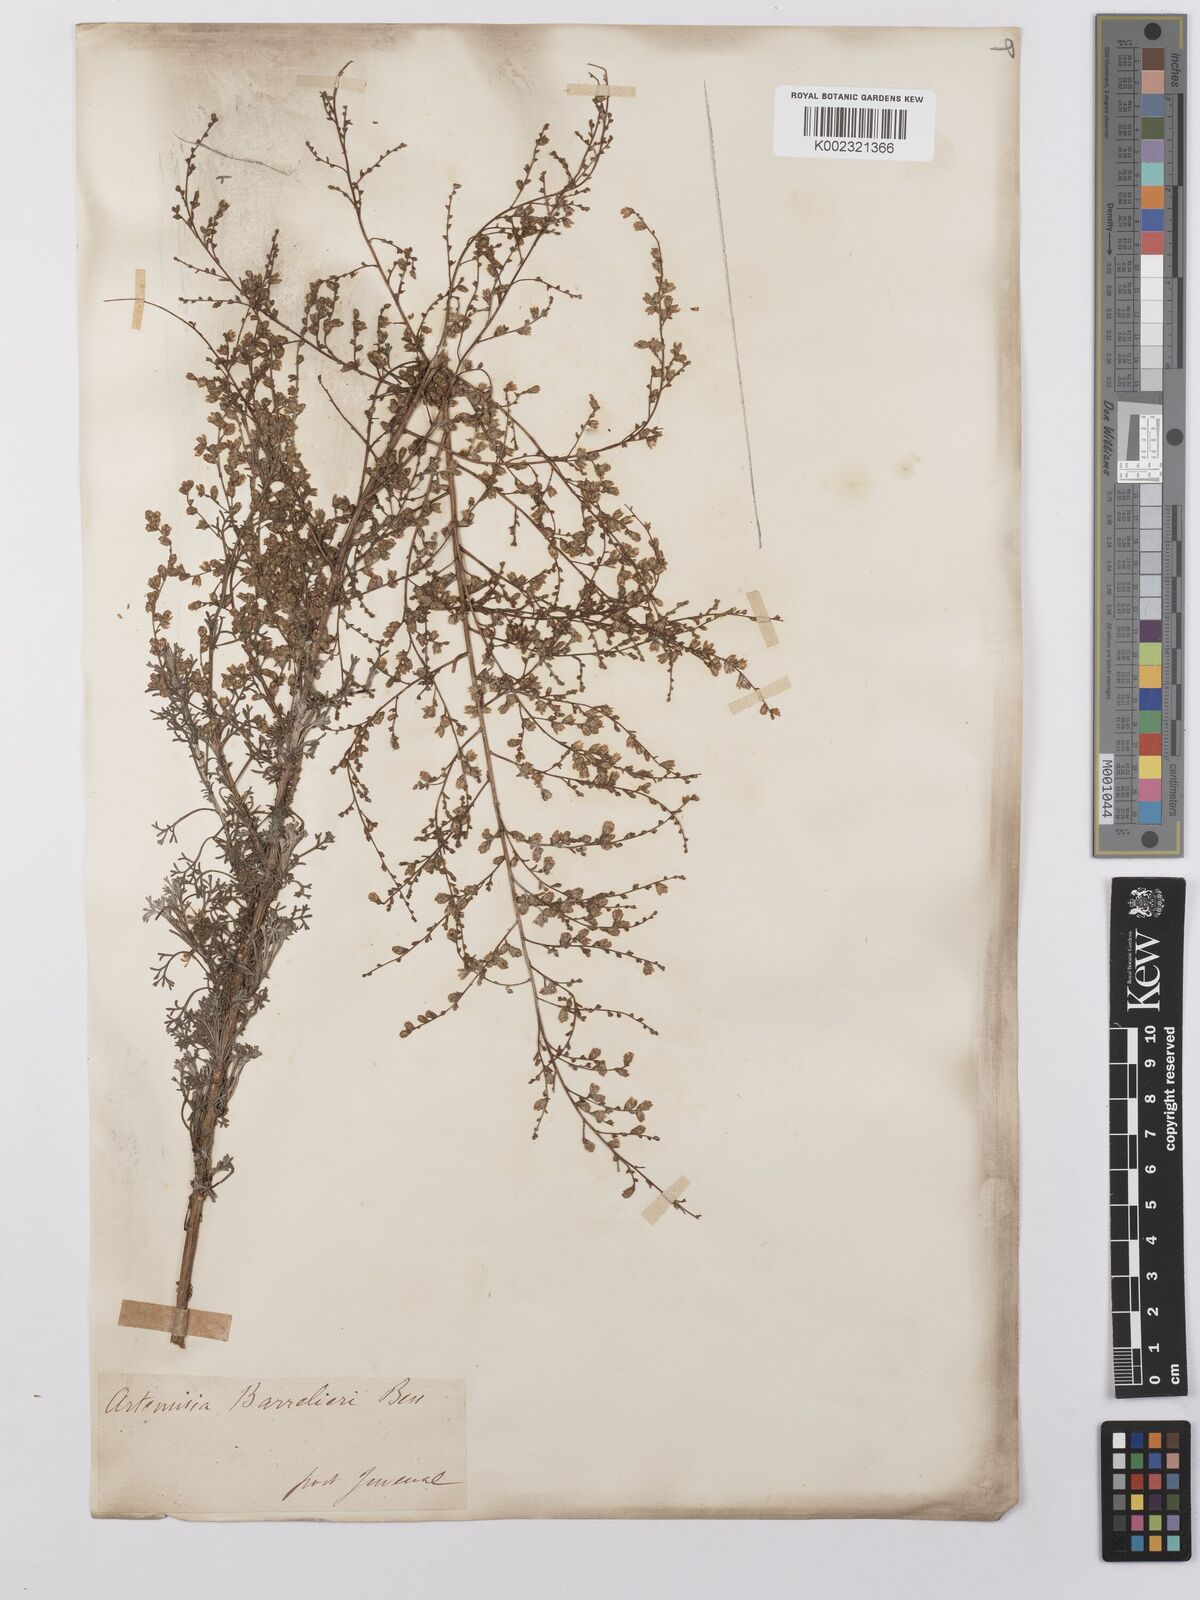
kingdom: Plantae
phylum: Tracheophyta
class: Magnoliopsida
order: Asterales
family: Asteraceae
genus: Artemisia
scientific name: Artemisia barrelieri
